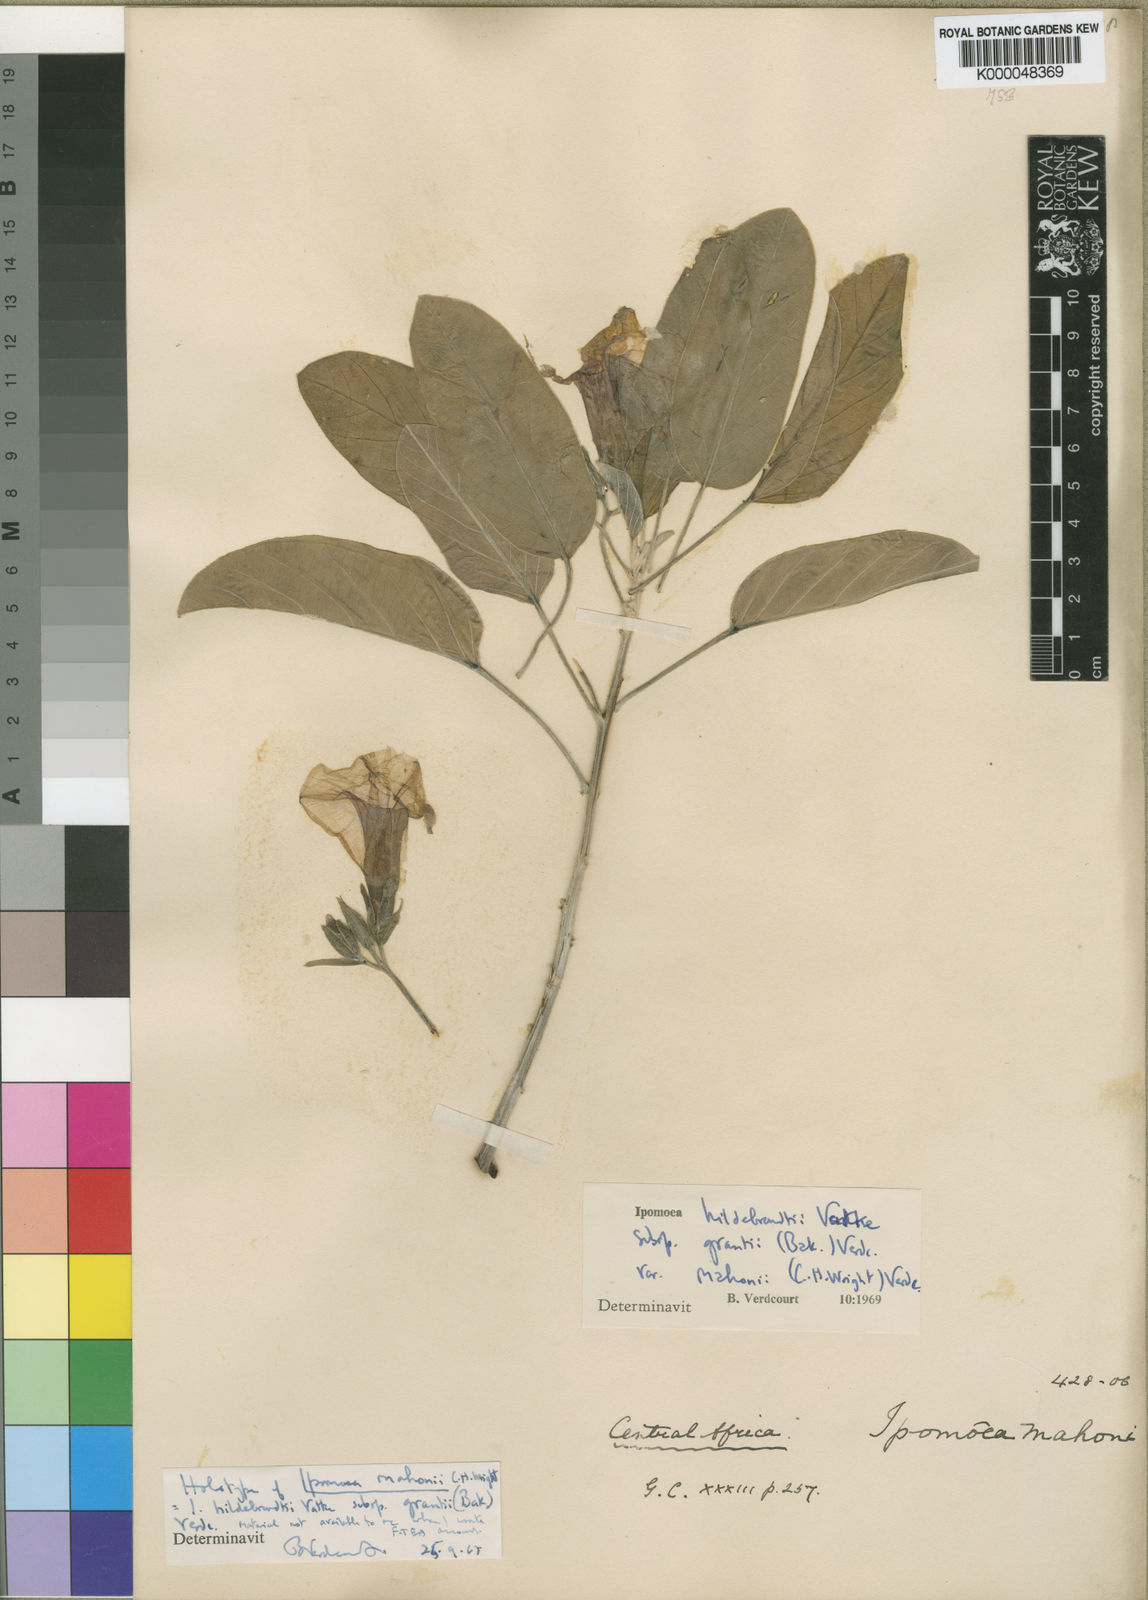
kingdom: Plantae
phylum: Tracheophyta
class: Magnoliopsida
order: Solanales
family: Convolvulaceae
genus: Ipomoea
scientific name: Ipomoea hildebrandtii
